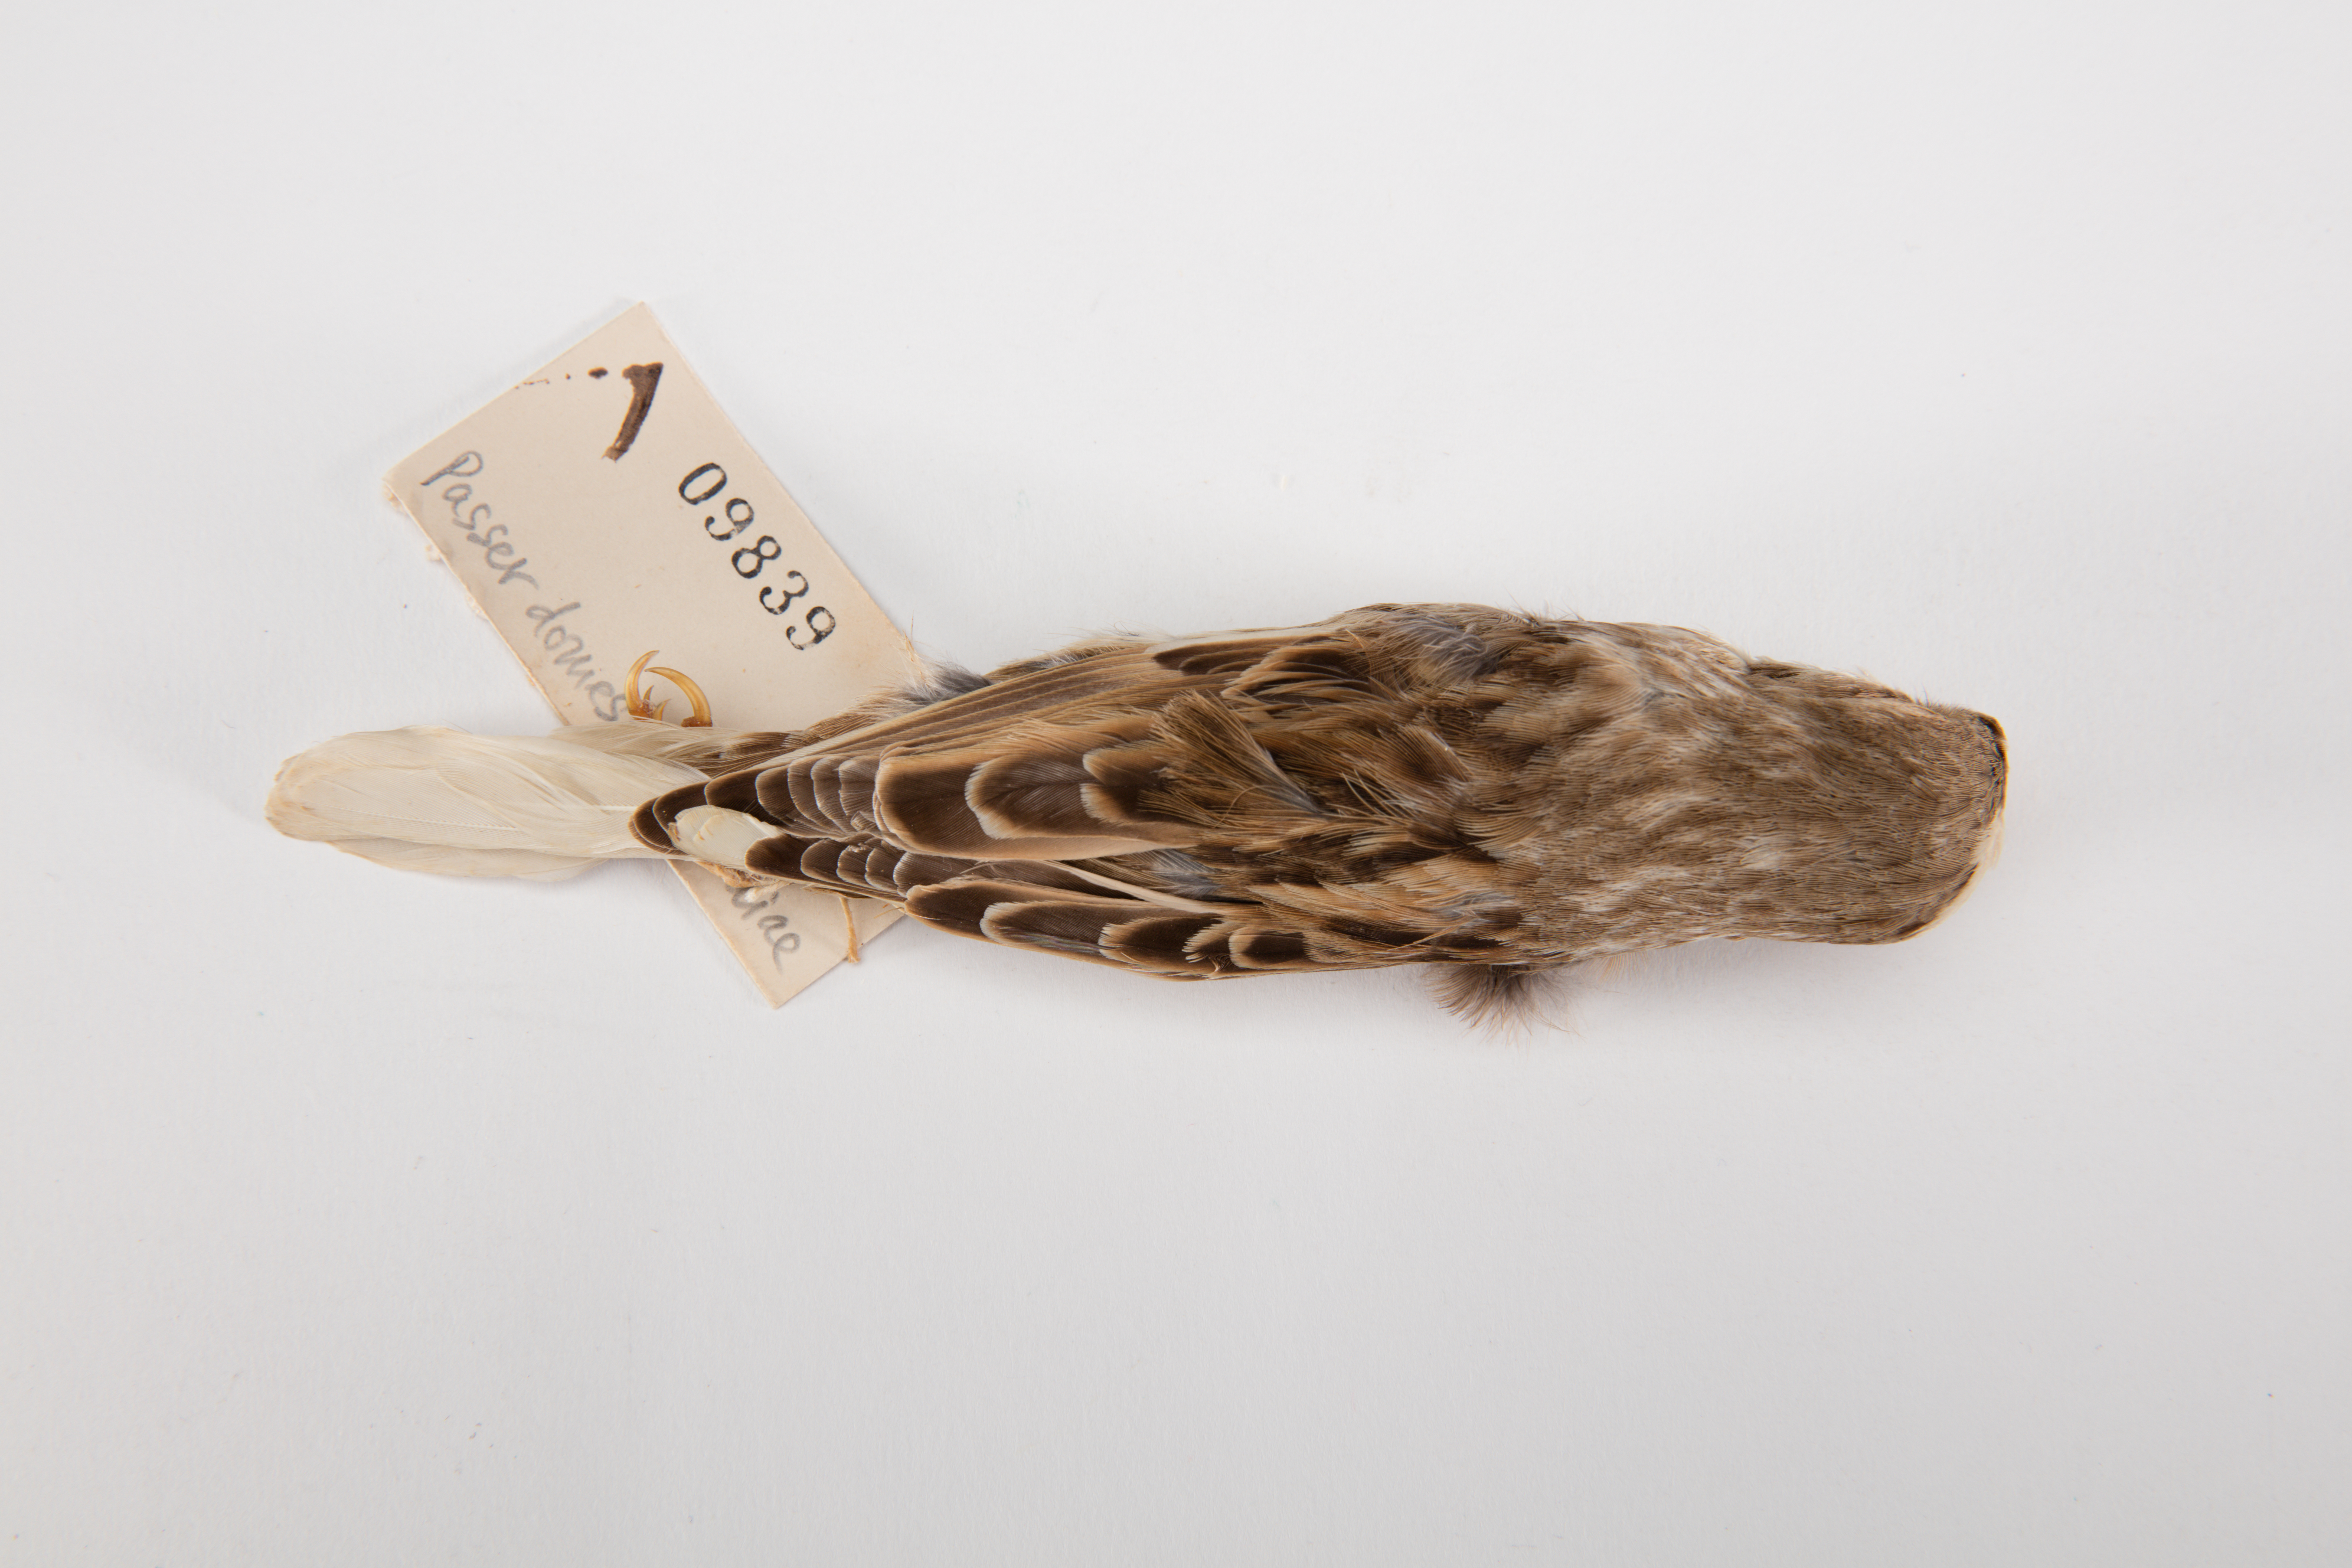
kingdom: Animalia
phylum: Chordata
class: Aves
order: Passeriformes
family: Passeridae
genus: Passer
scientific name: Passer italiae
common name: Italian sparrow
